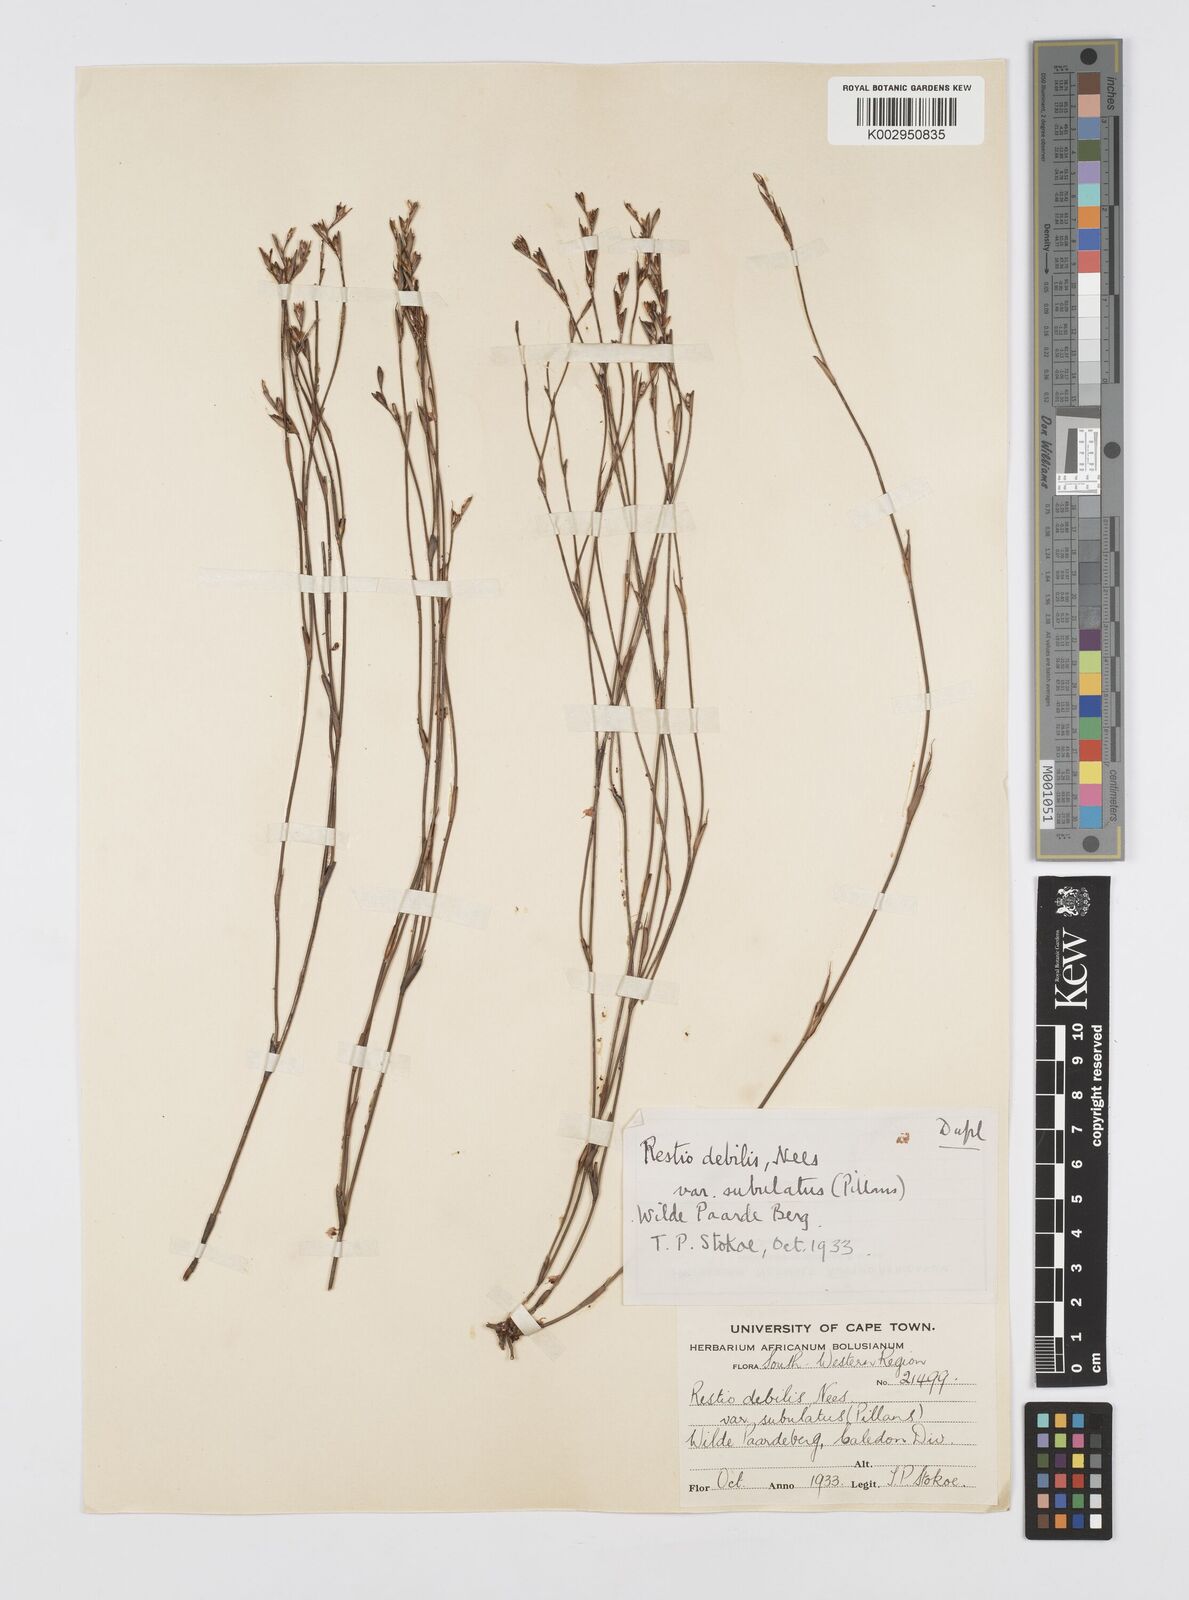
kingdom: Plantae
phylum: Tracheophyta
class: Liliopsida
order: Poales
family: Restionaceae
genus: Restio
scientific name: Restio debilis
